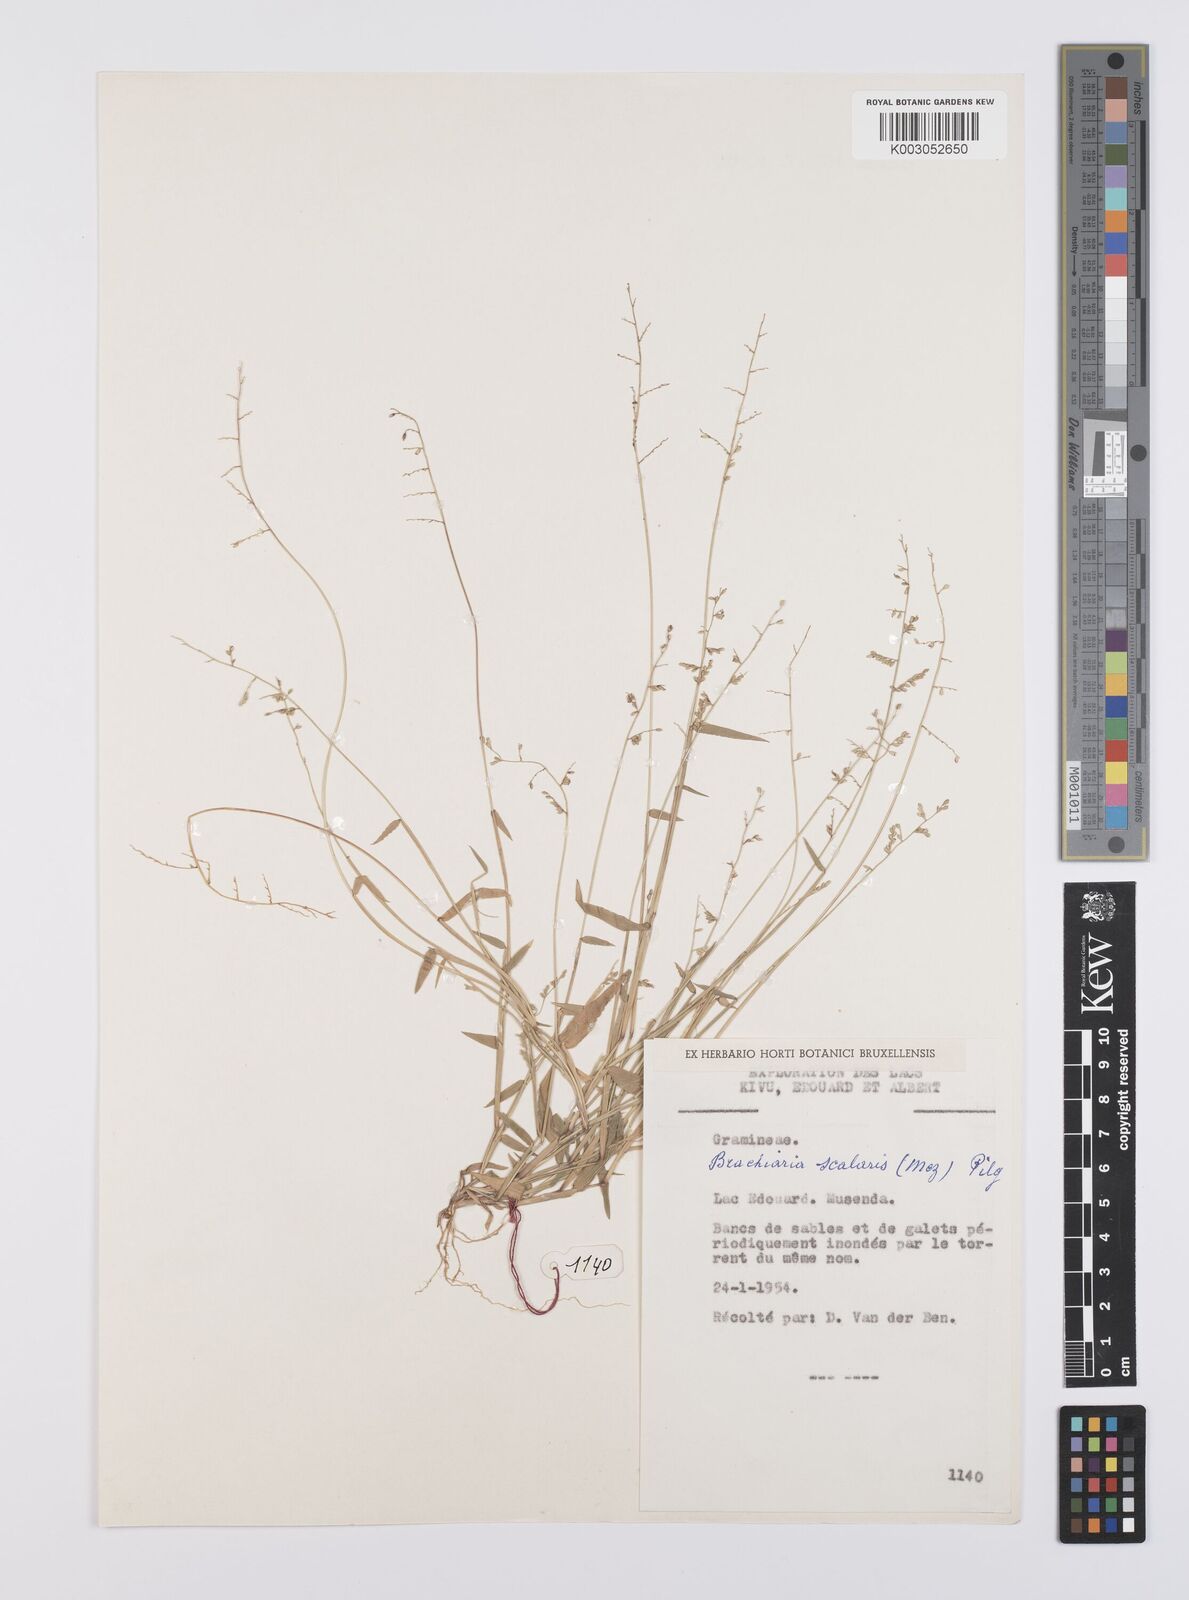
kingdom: Plantae
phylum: Tracheophyta
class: Liliopsida
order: Poales
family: Poaceae
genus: Urochloa
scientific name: Urochloa comata
